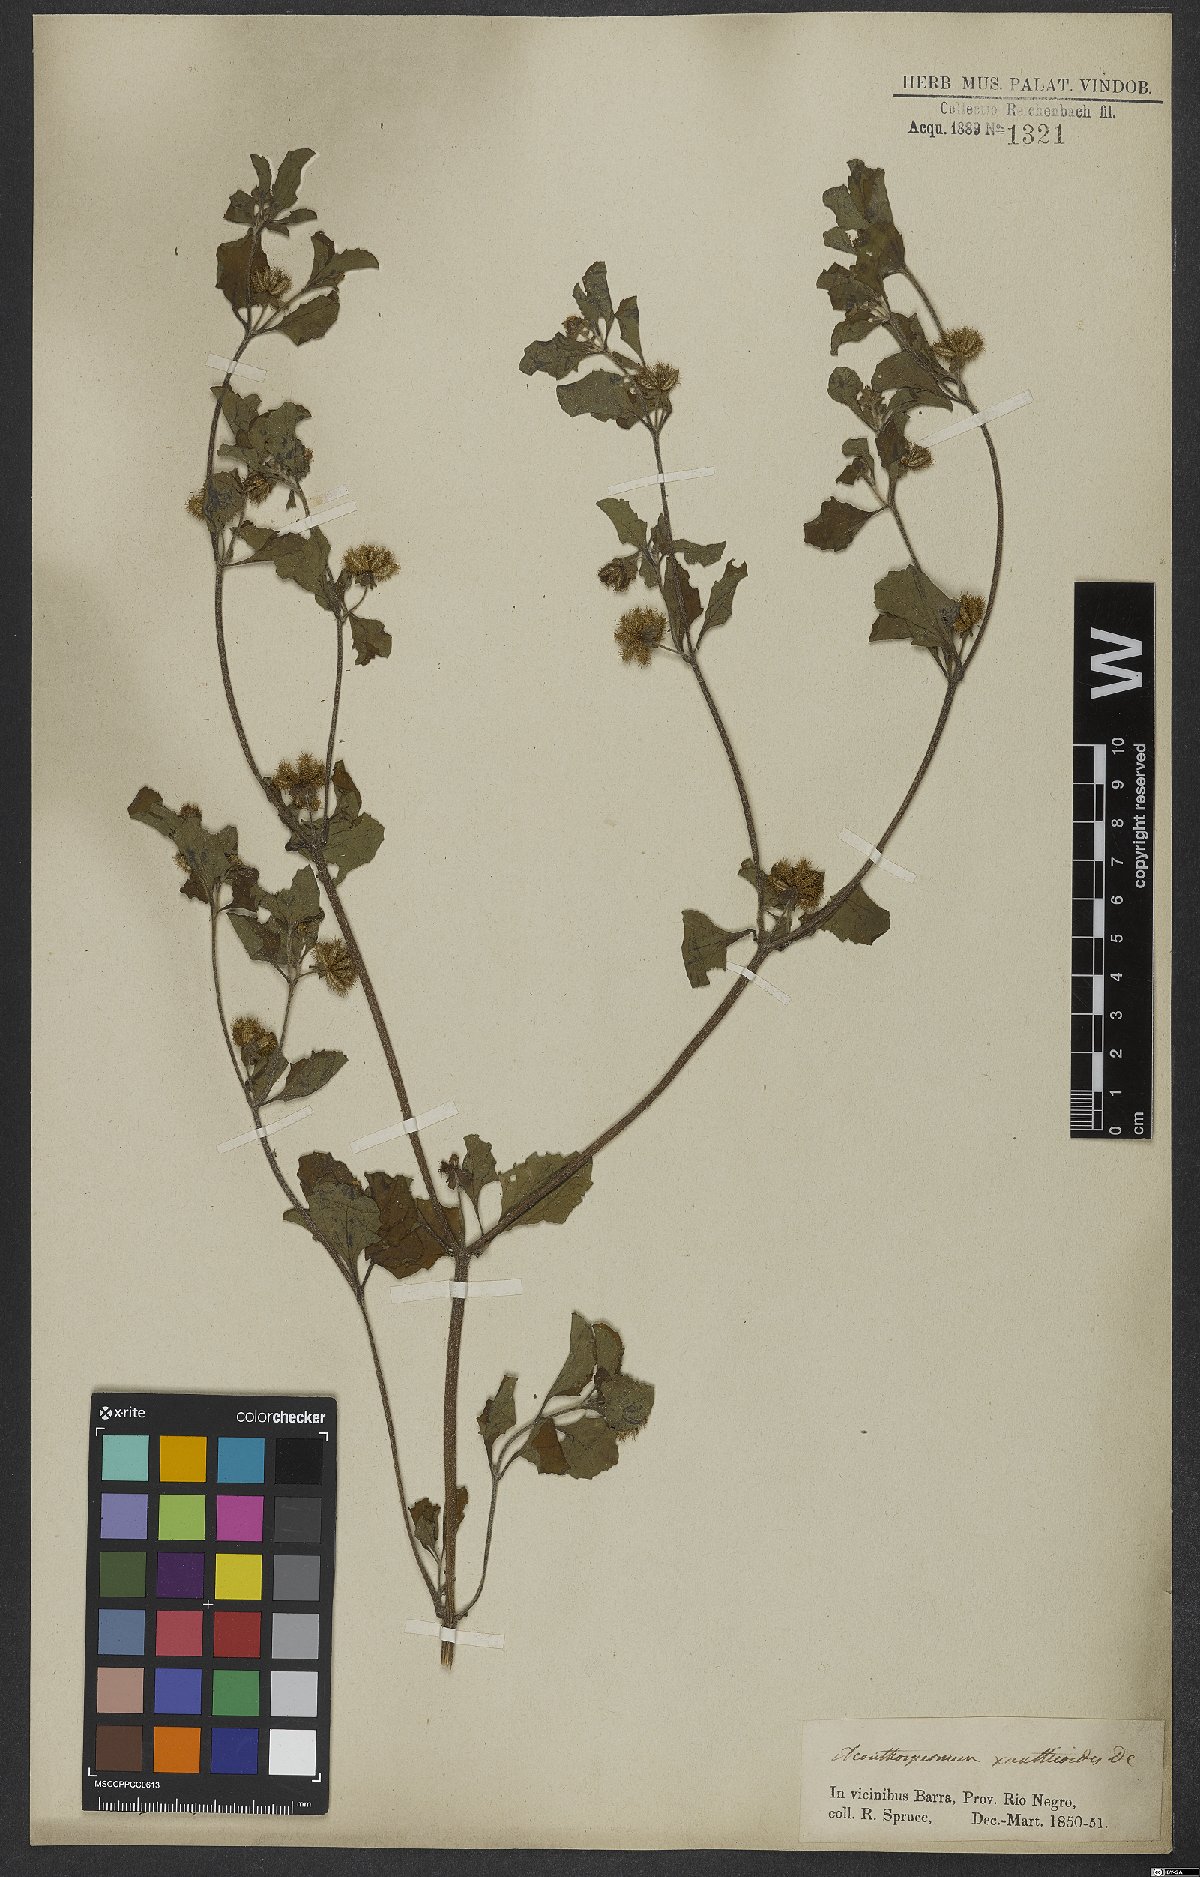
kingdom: Plantae
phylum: Tracheophyta
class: Magnoliopsida
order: Asterales
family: Asteraceae
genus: Acanthospermum
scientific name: Acanthospermum australe
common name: Paraguayan starbur
